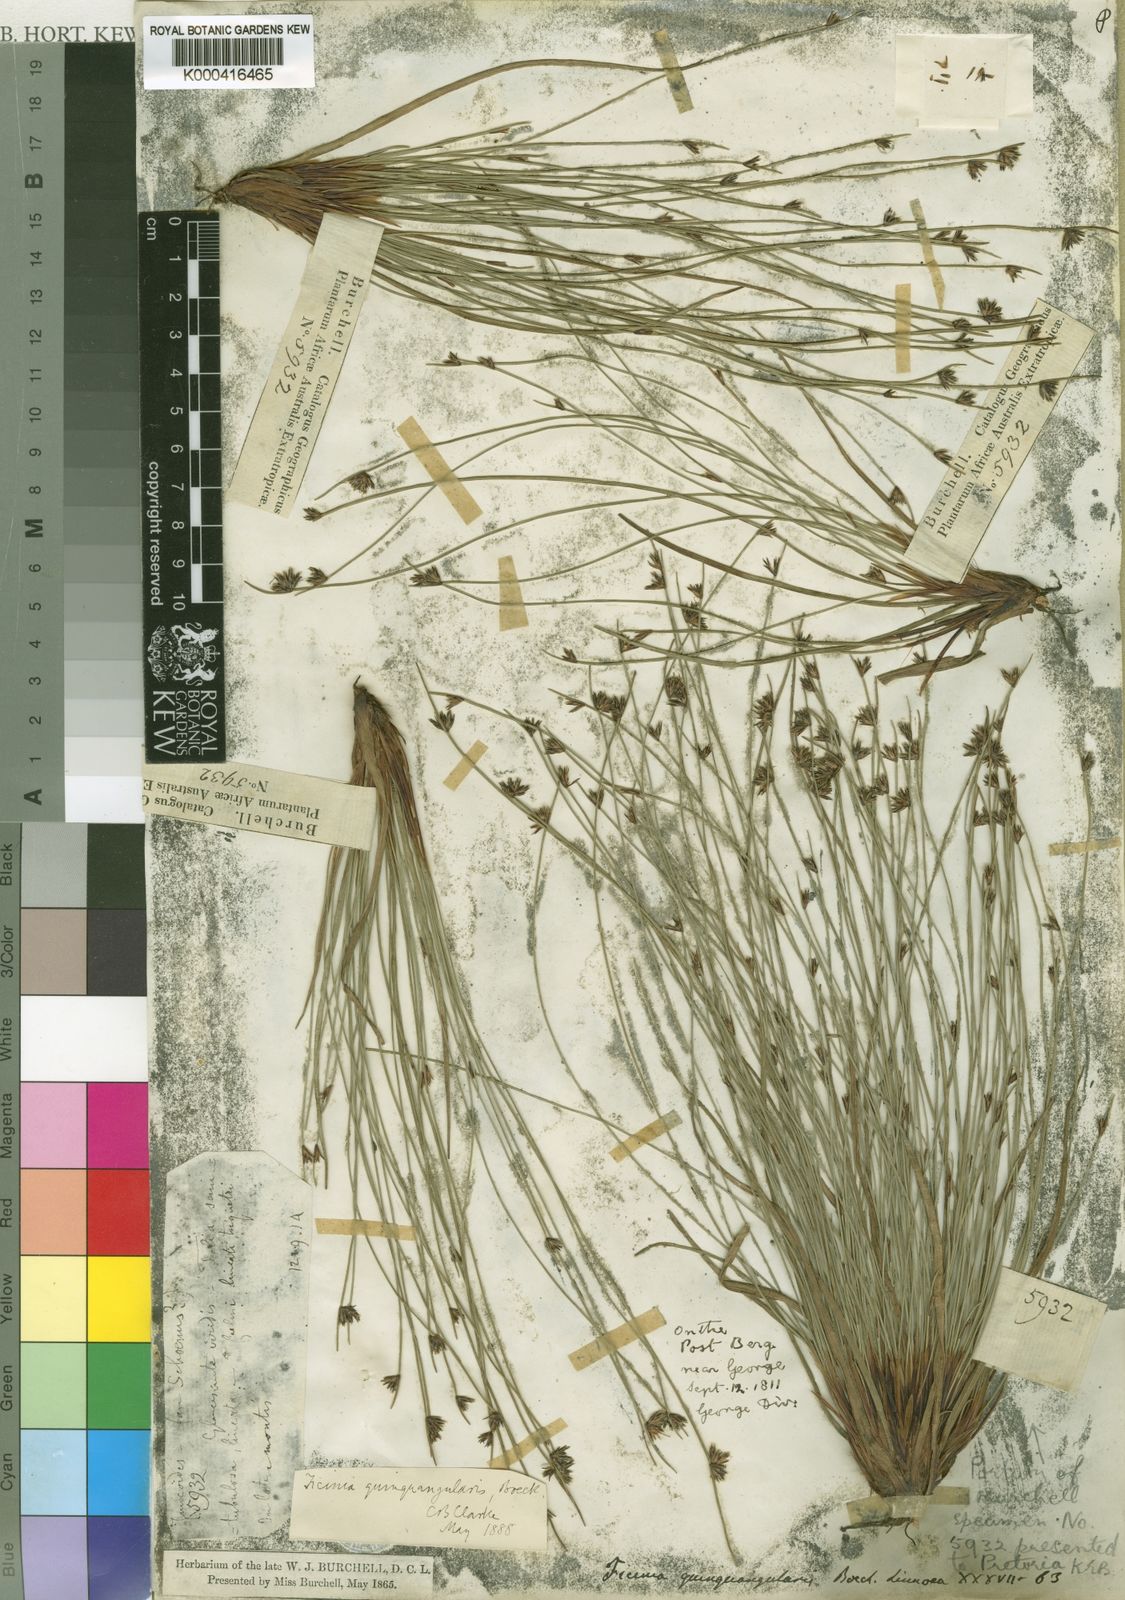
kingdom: Plantae
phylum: Tracheophyta
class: Liliopsida
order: Poales
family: Cyperaceae
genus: Ficinia
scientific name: Ficinia quinquangularis
